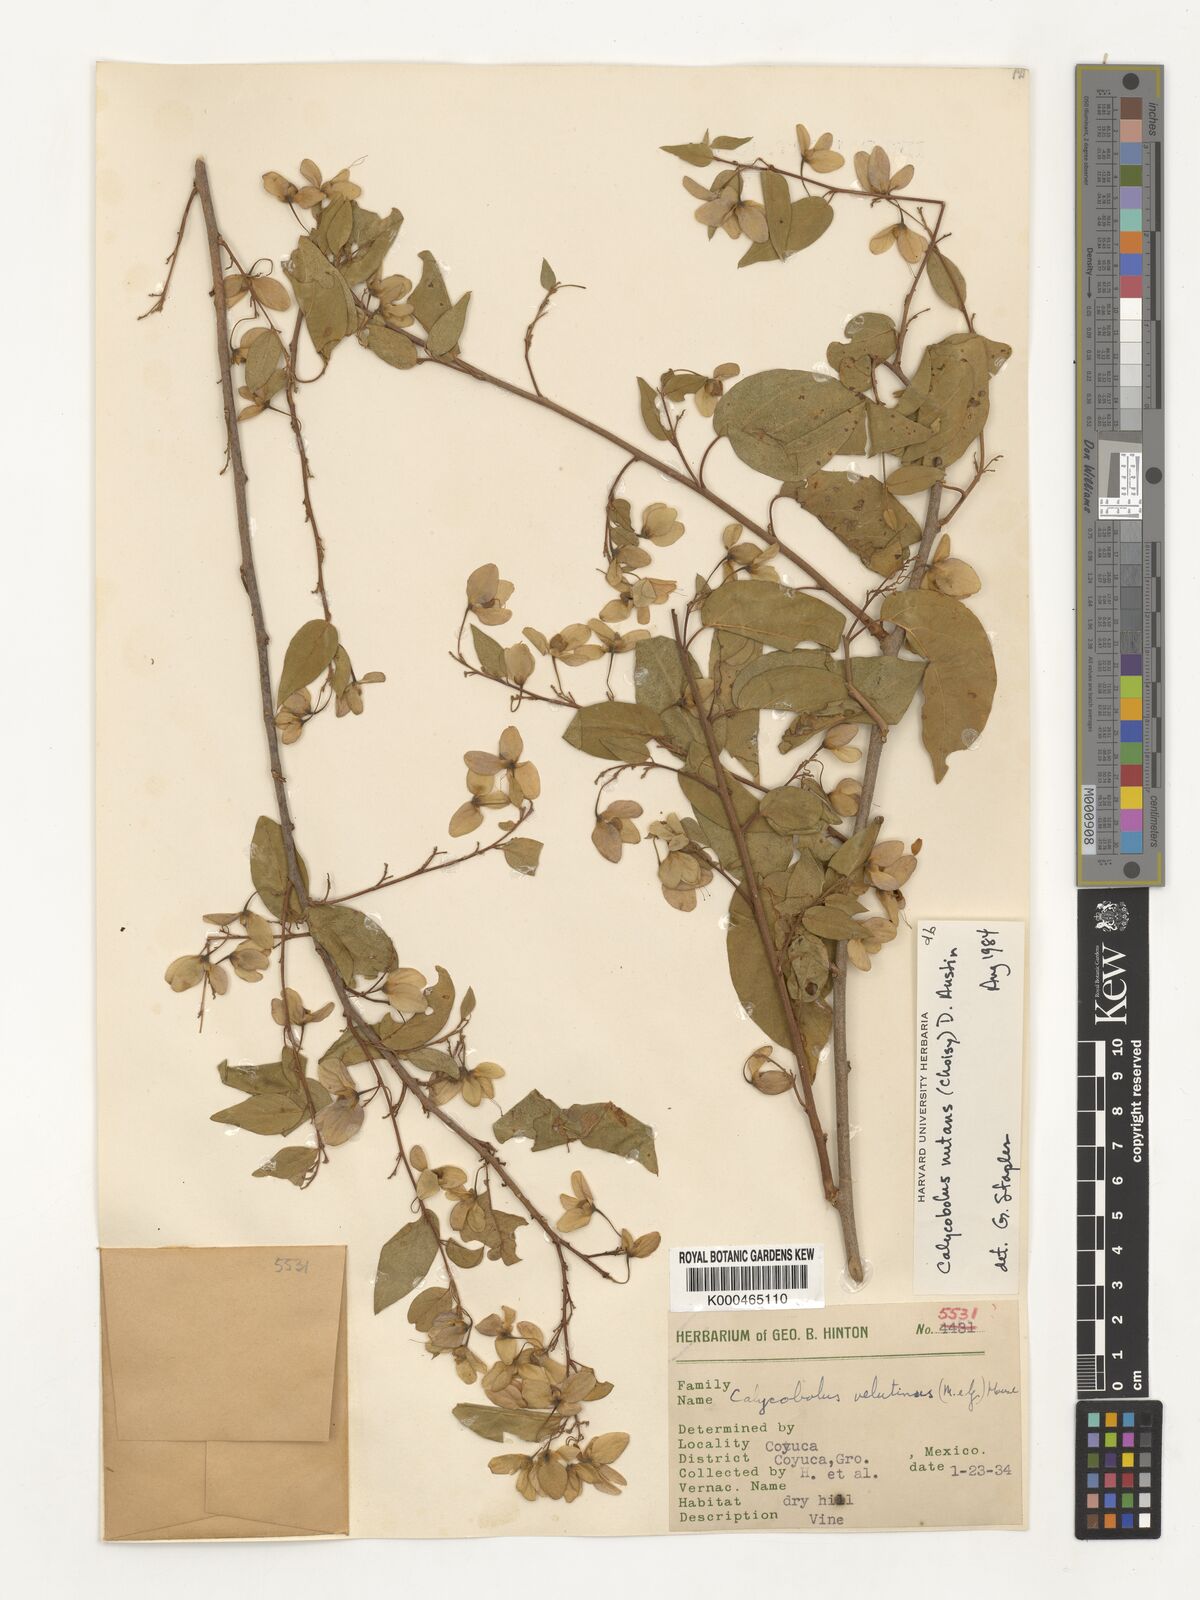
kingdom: Plantae
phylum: Tracheophyta
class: Magnoliopsida
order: Solanales
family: Convolvulaceae
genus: Calycobolus
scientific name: Calycobolus
